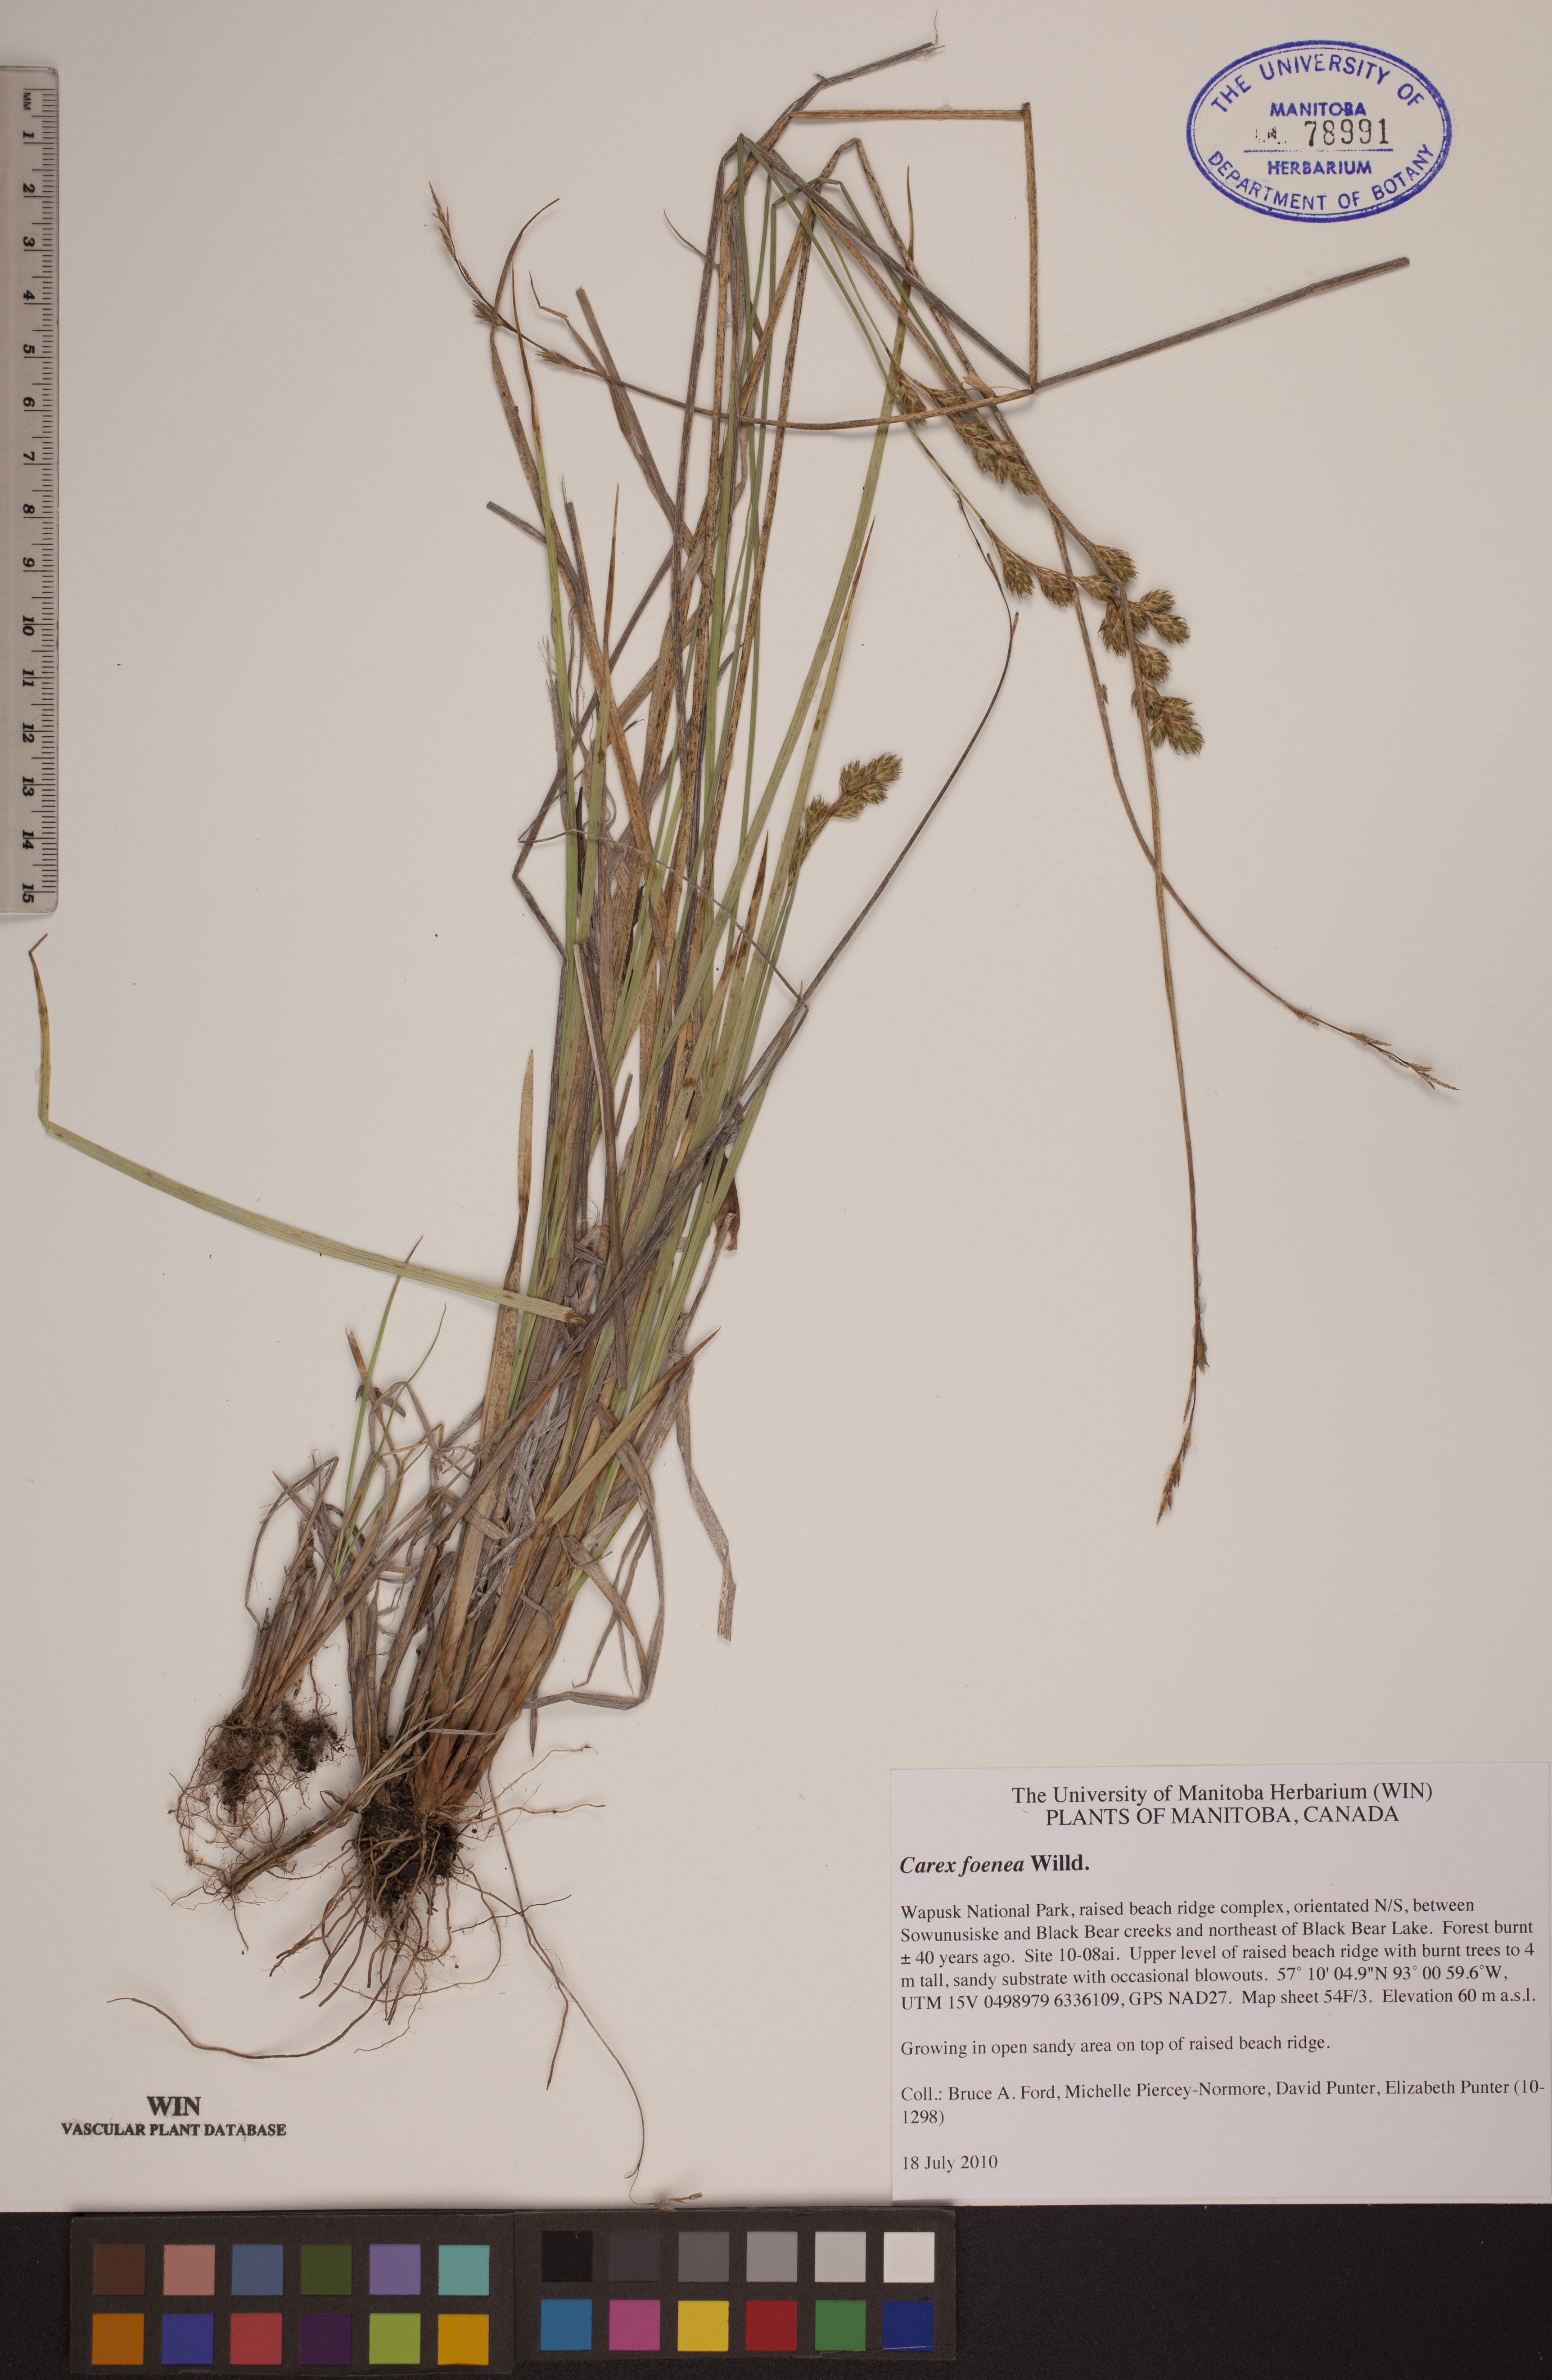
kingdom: Plantae
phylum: Tracheophyta
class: Liliopsida
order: Poales
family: Cyperaceae
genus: Carex
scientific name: Carex foenea
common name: Bronze sedge
